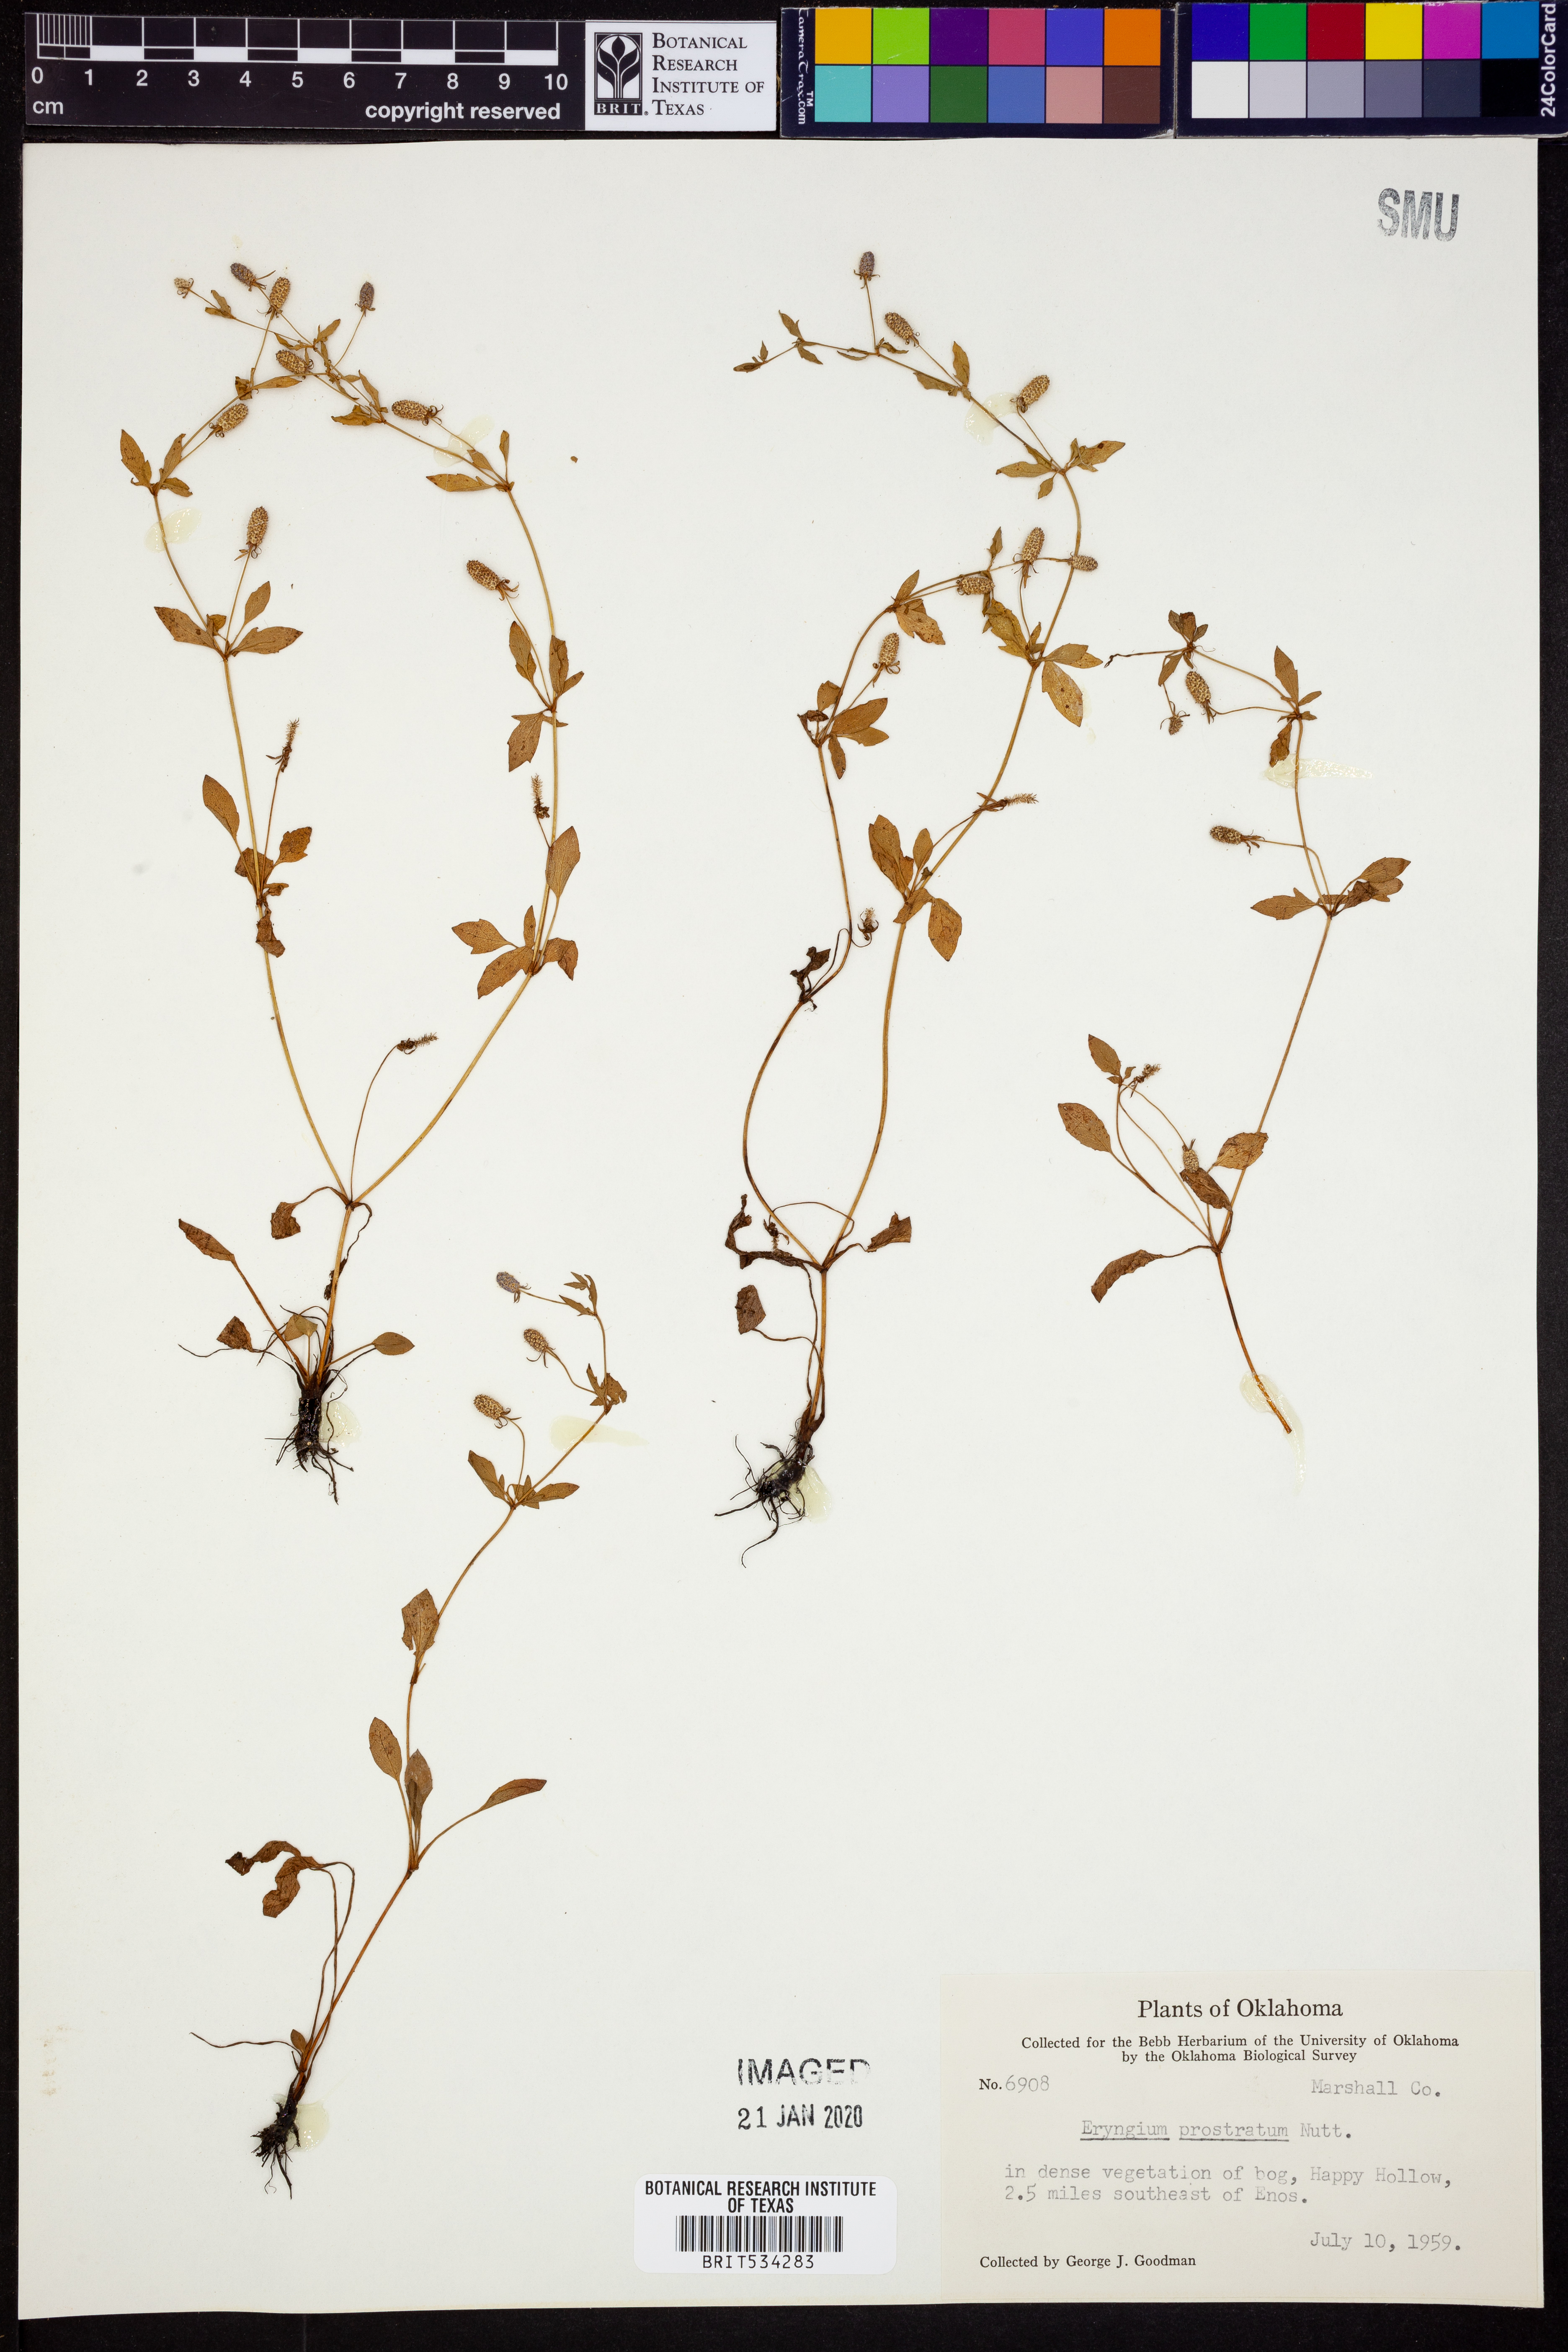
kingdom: Plantae
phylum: Tracheophyta
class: Magnoliopsida
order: Apiales
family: Apiaceae
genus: Eryngium
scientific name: Eryngium prostratum
